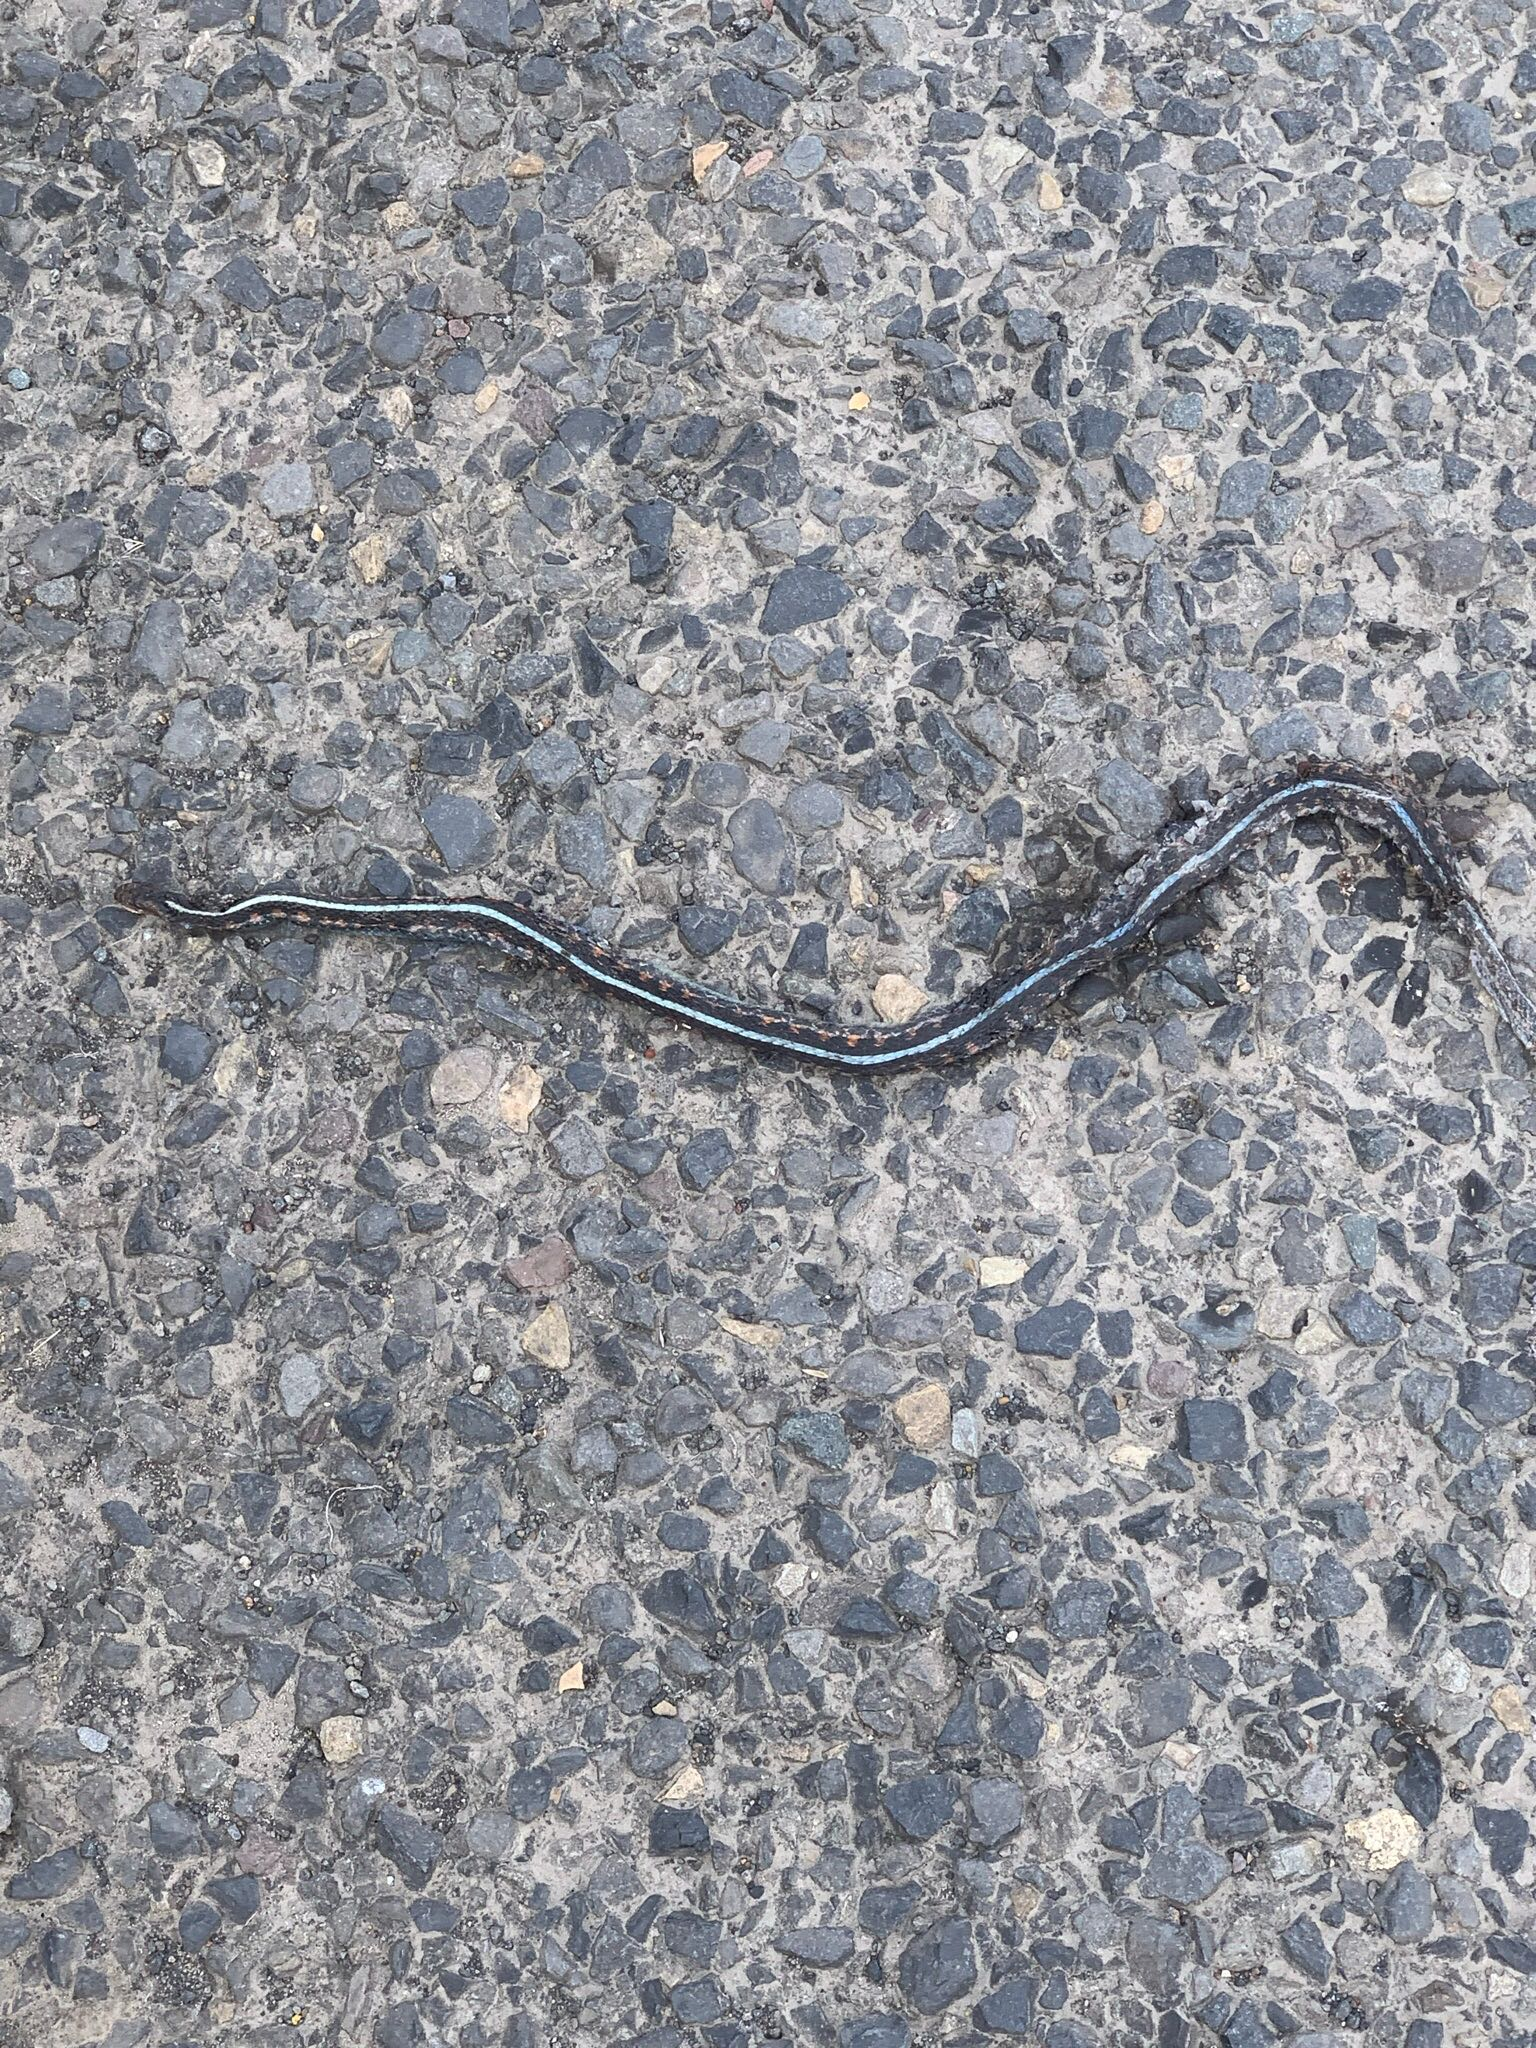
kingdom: Animalia
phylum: Chordata
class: Squamata
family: Colubridae
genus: Thamnophis
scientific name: Thamnophis sirtalis
